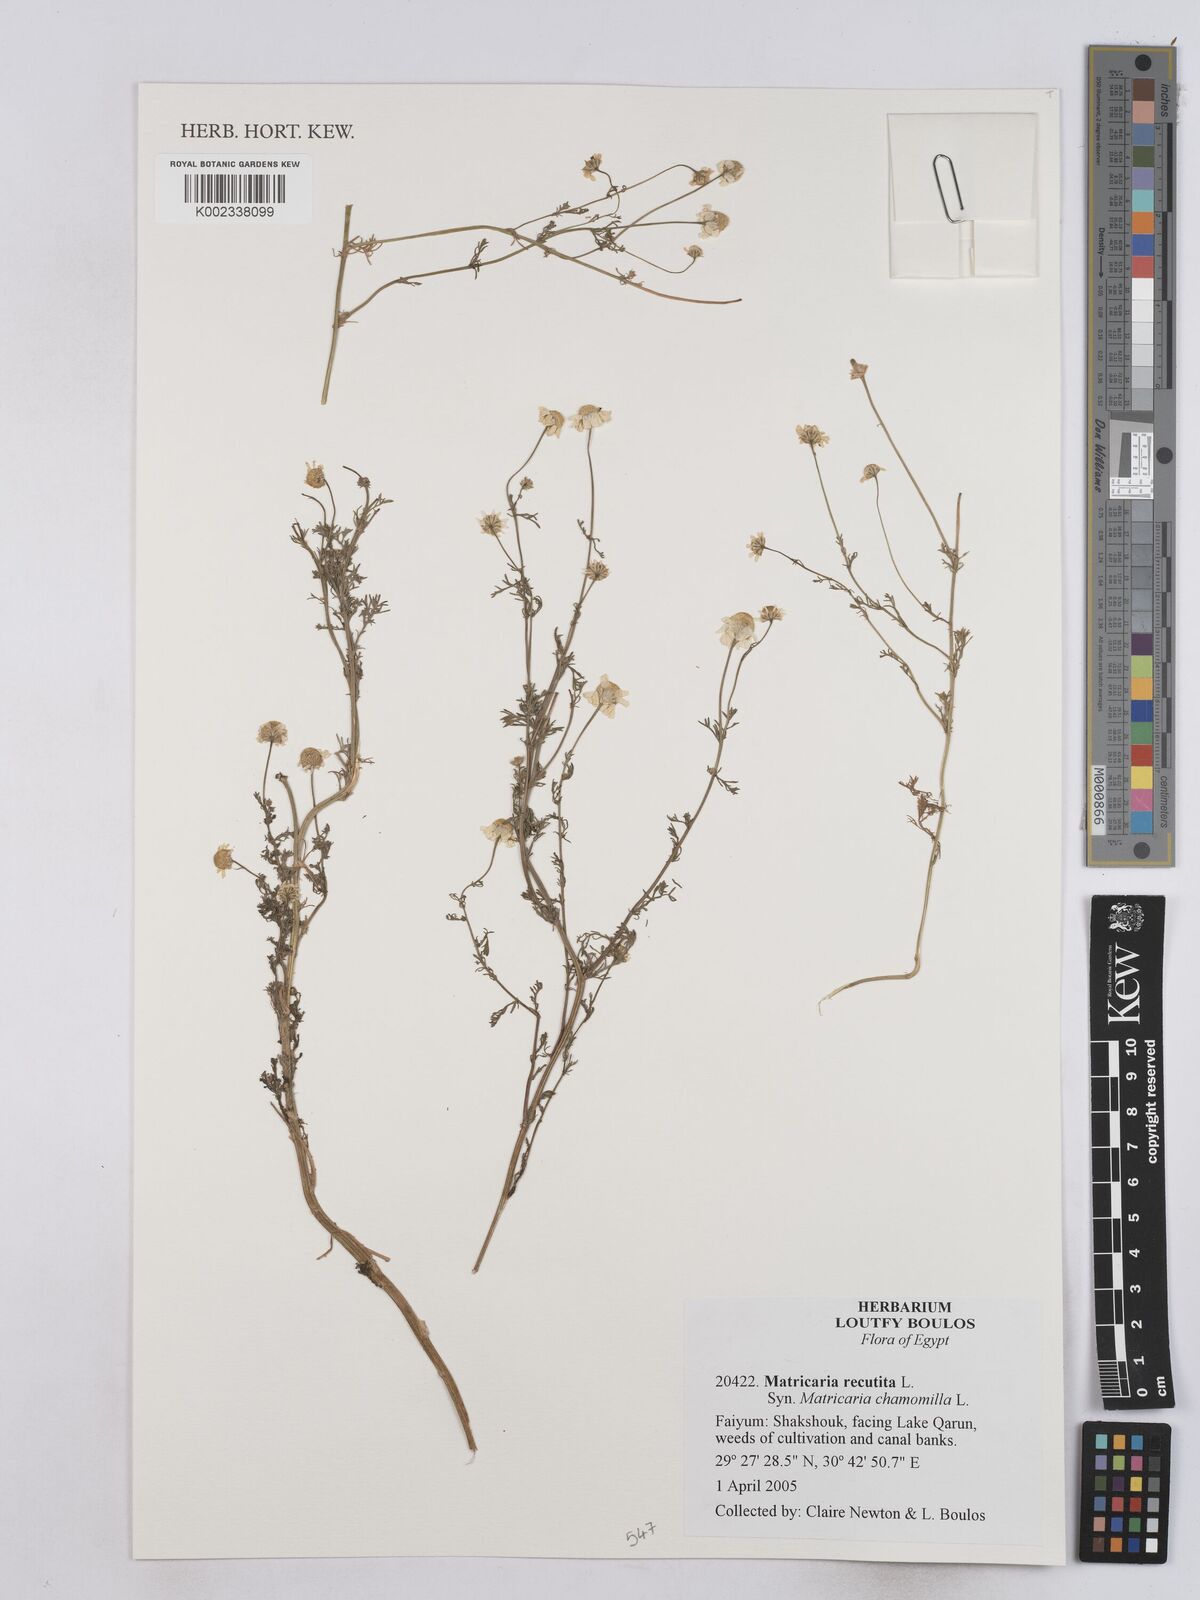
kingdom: Plantae
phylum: Tracheophyta
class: Magnoliopsida
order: Asterales
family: Asteraceae
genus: Matricaria
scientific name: Matricaria chamomilla
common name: Scented mayweed
